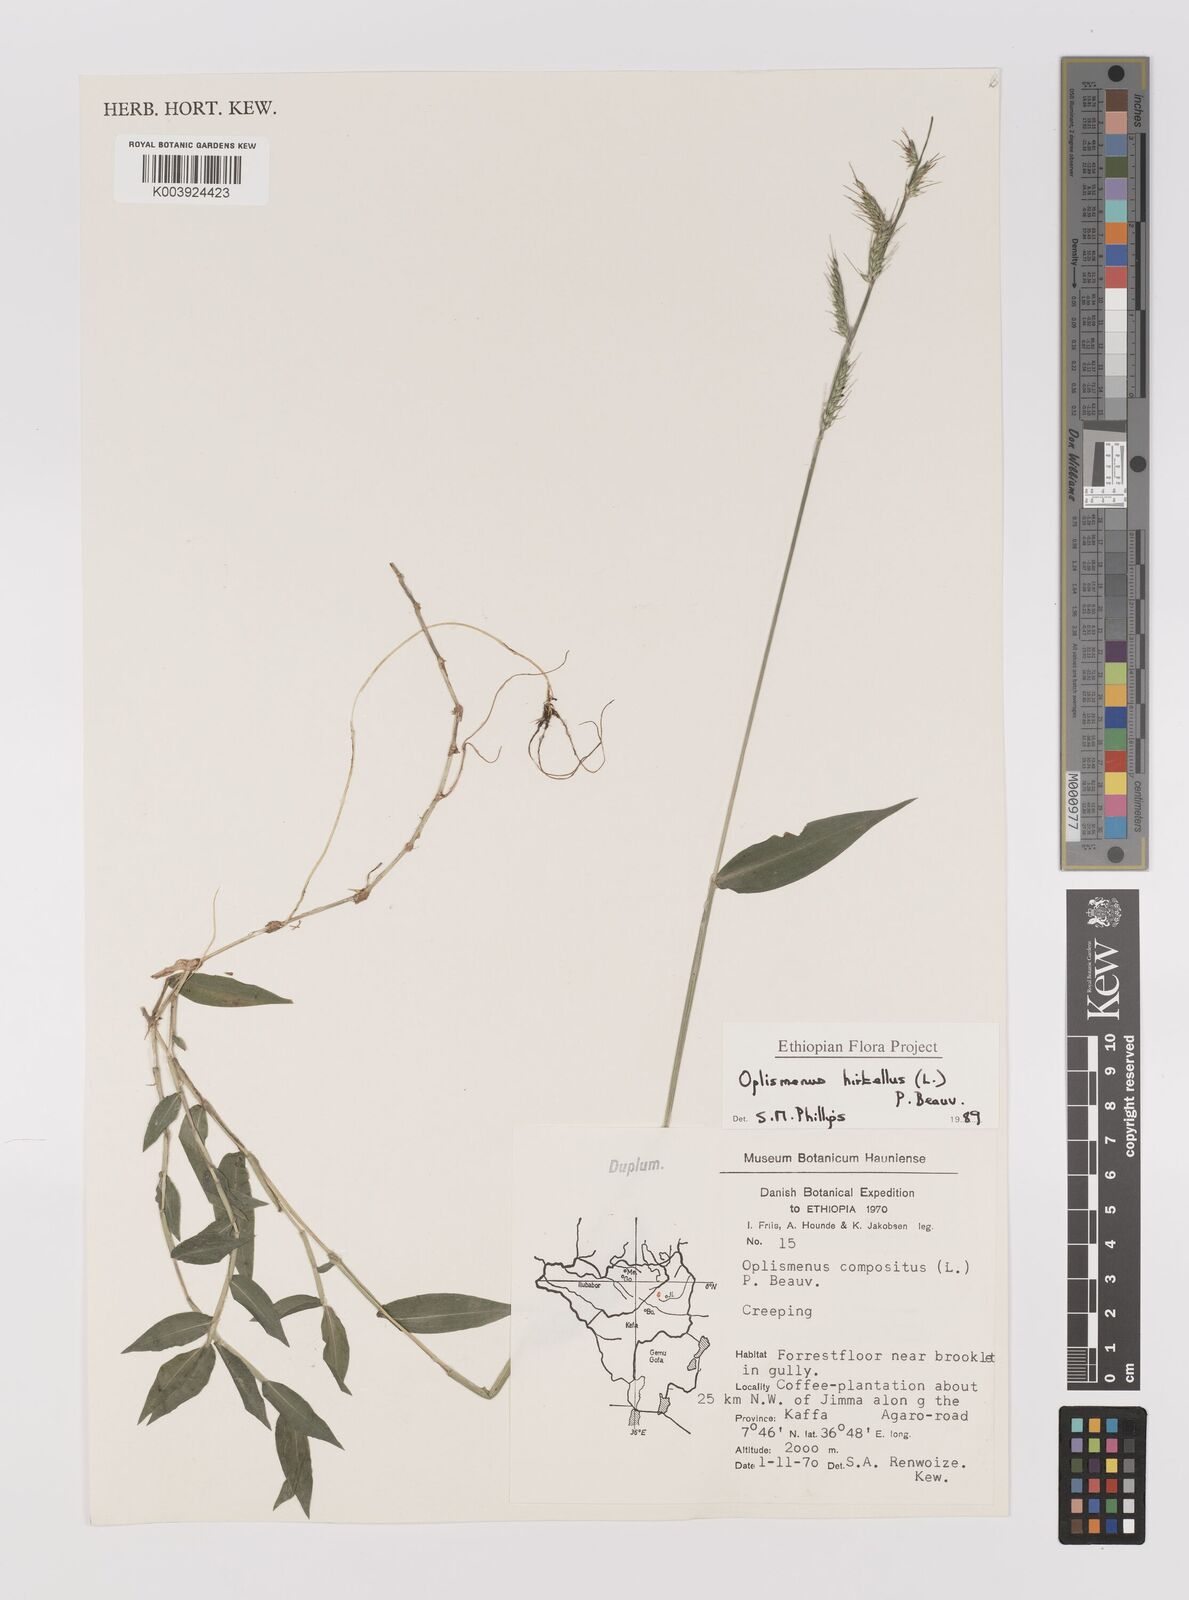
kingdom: Plantae
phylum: Tracheophyta
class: Liliopsida
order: Poales
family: Poaceae
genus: Oplismenus
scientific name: Oplismenus hirtellus
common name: Basketgrass
